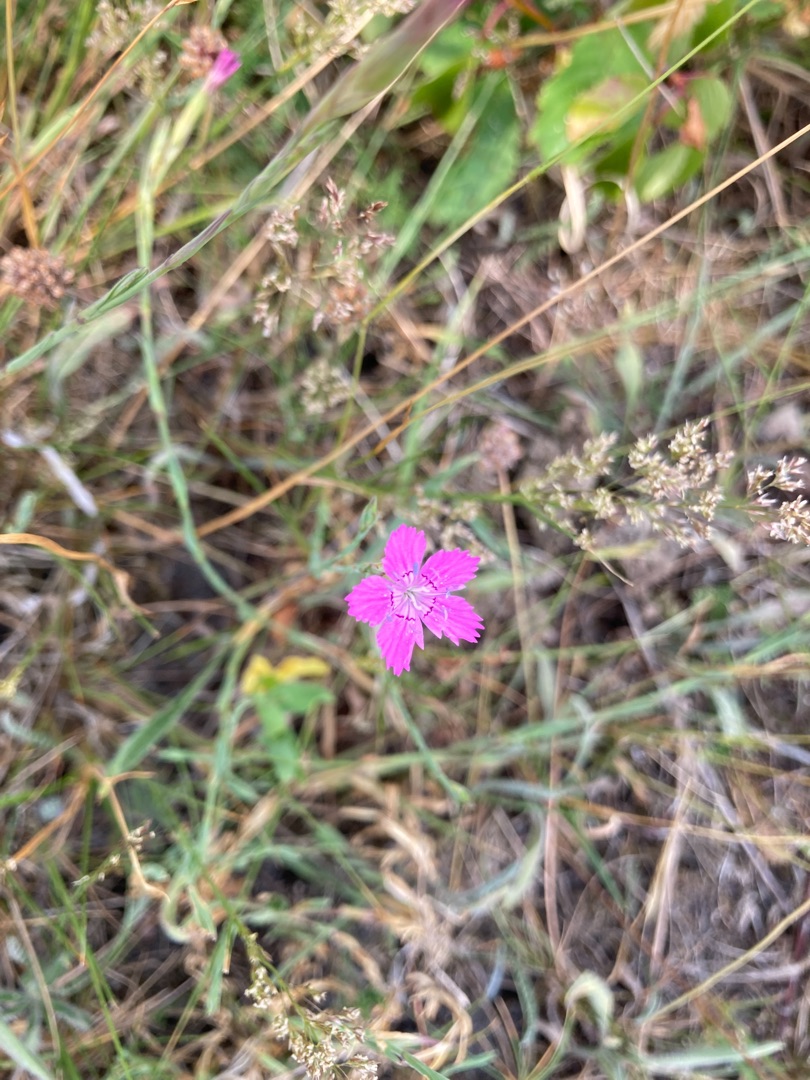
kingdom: Plantae
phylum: Tracheophyta
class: Magnoliopsida
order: Caryophyllales
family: Caryophyllaceae
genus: Dianthus
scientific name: Dianthus deltoides
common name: Bakke-nellike
